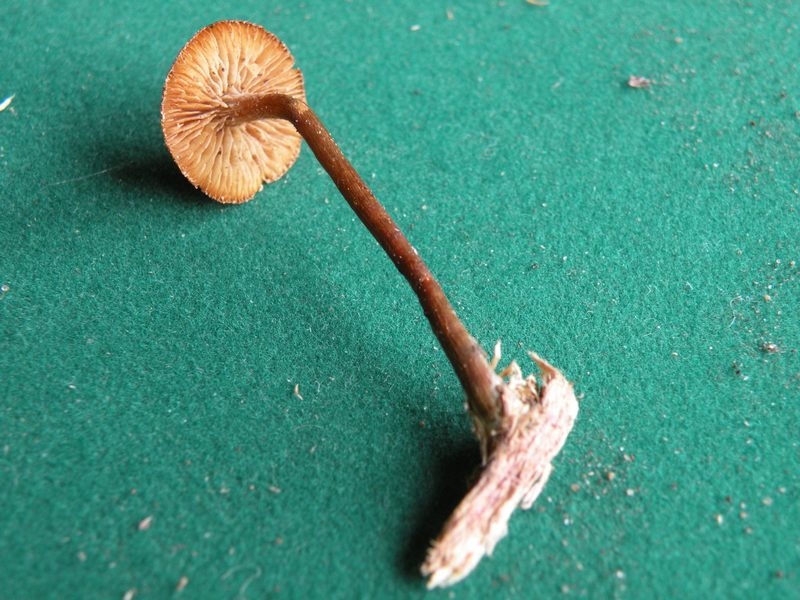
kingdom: Fungi
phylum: Basidiomycota
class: Agaricomycetes
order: Agaricales
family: Hymenogastraceae
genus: Galerina
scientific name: Galerina hypnorum
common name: mos-hjelmhat
